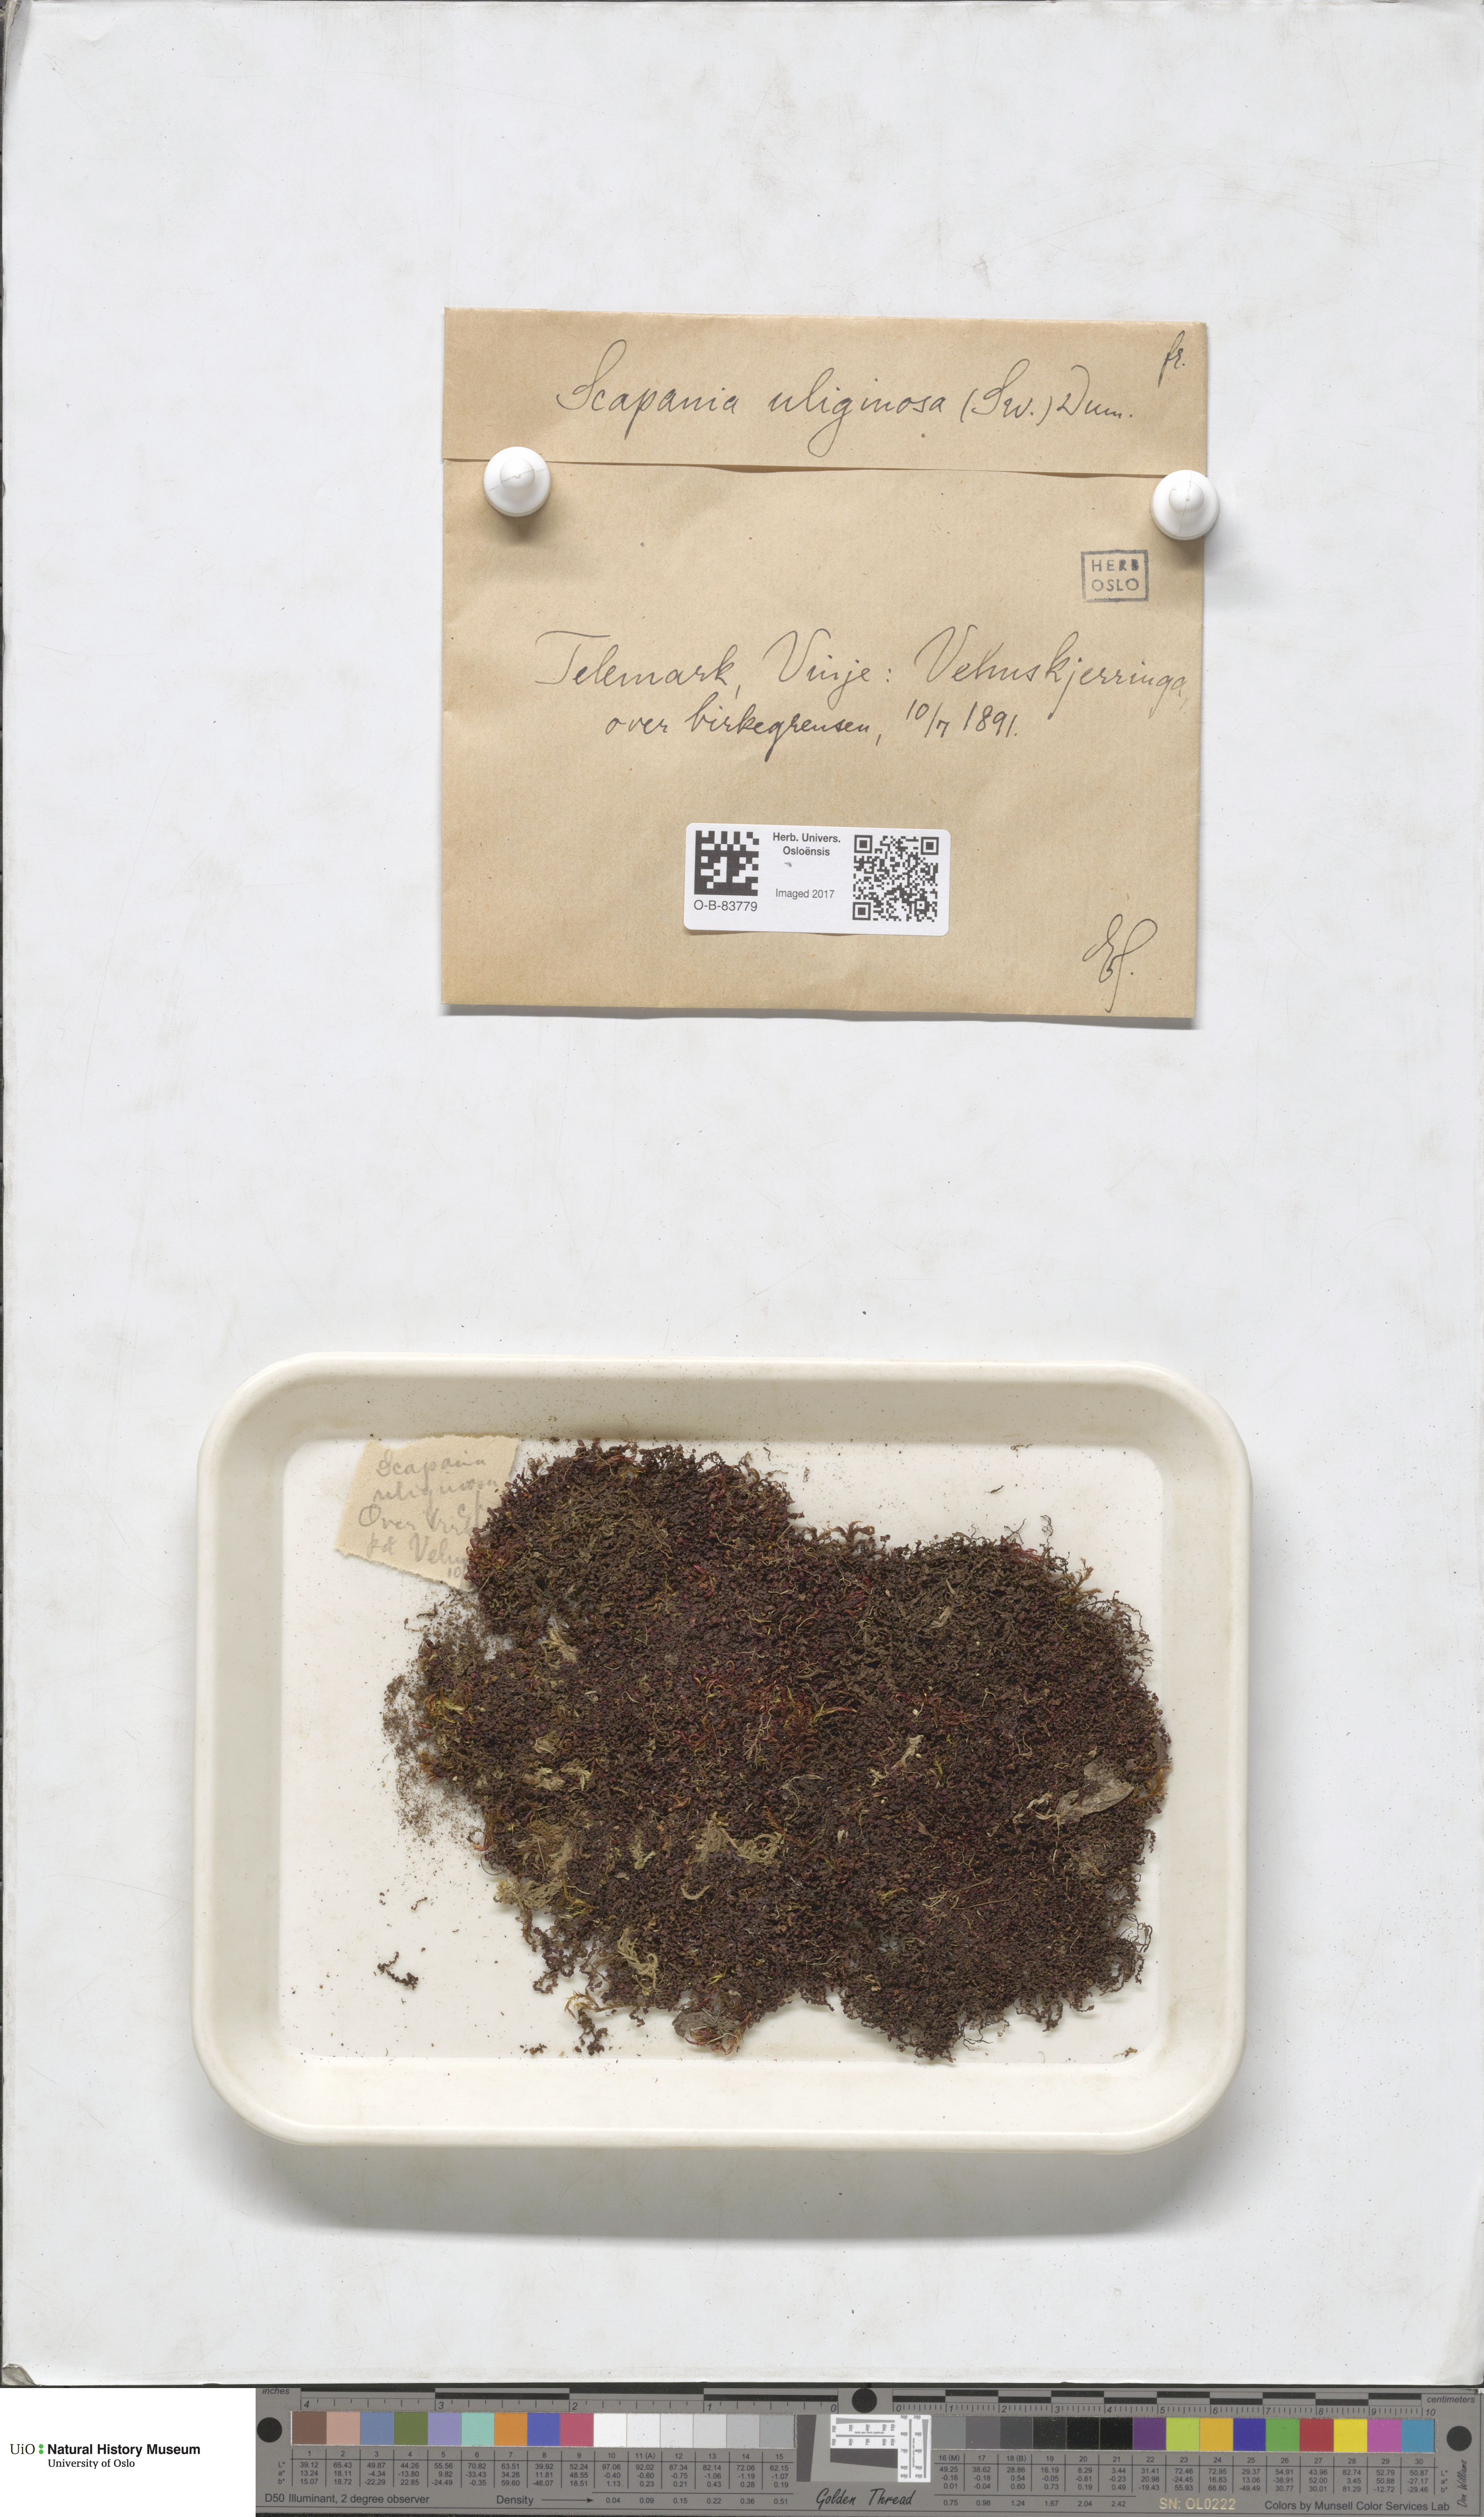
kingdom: Plantae
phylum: Marchantiophyta
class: Jungermanniopsida
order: Jungermanniales
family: Scapaniaceae
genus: Scapania
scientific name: Scapania uliginosa
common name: Marsh earwort
